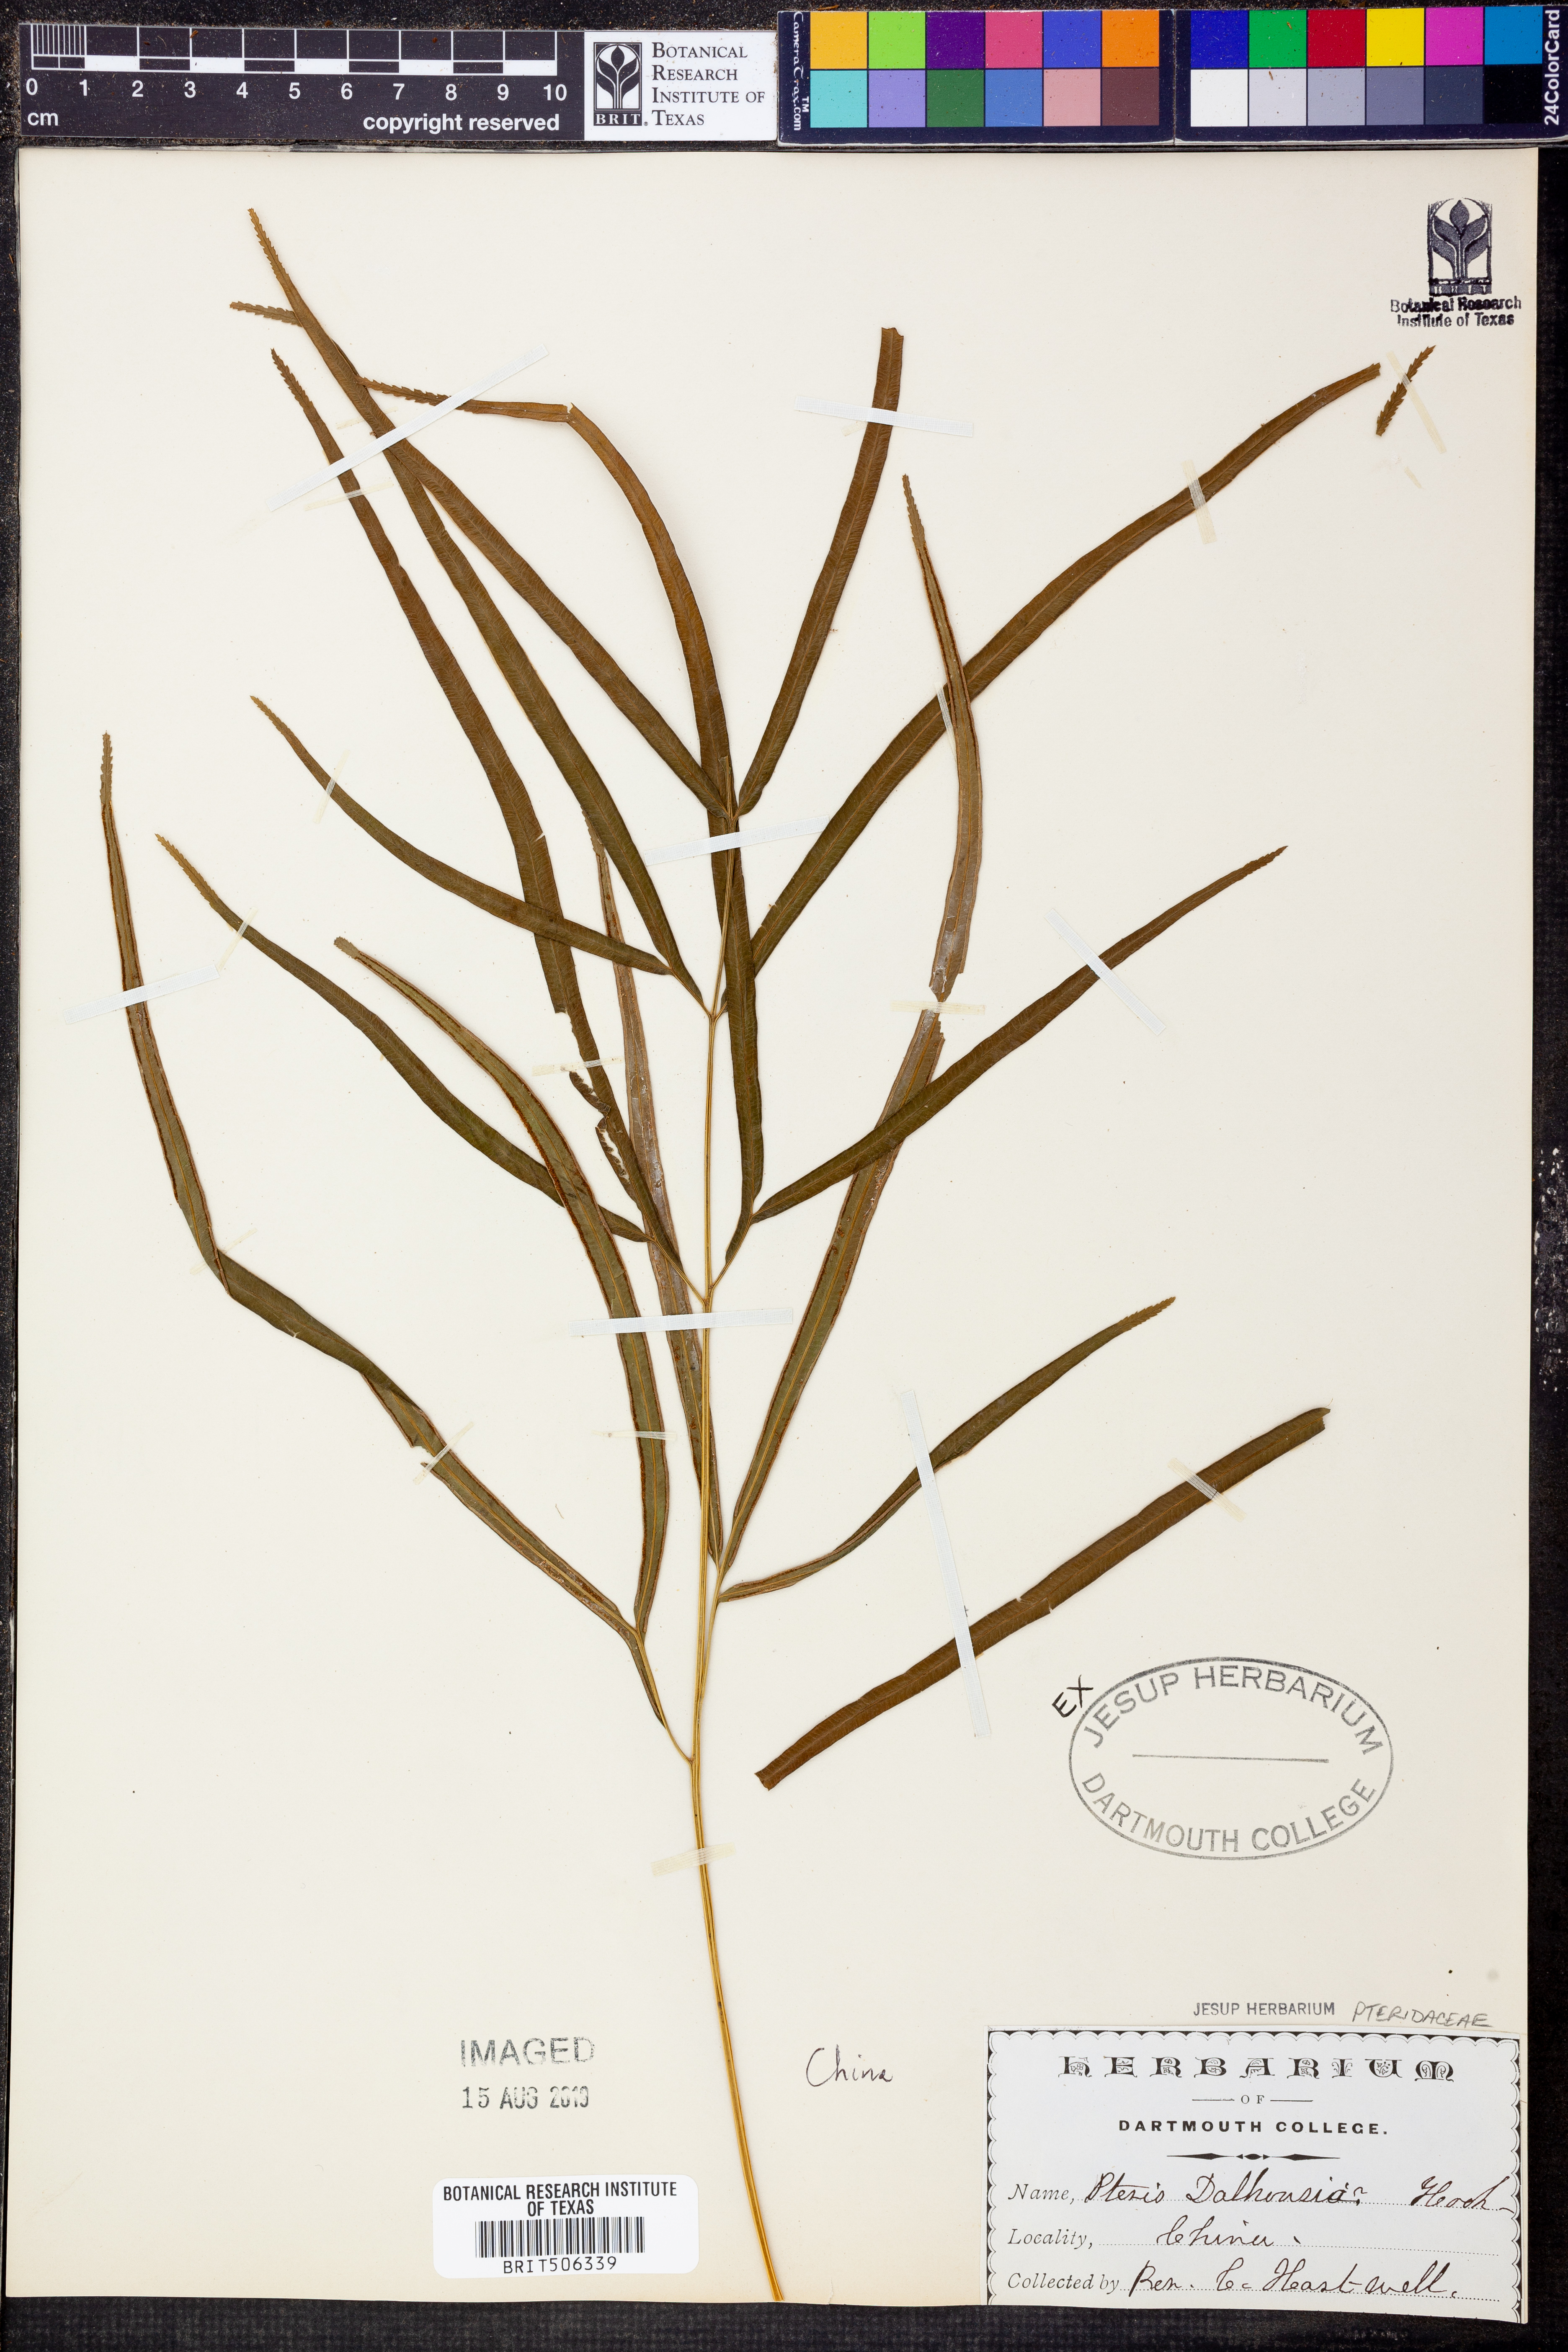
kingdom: Plantae
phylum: Tracheophyta
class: Polypodiopsida
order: Polypodiales
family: Pteridaceae
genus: Pteris
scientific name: Pteris dalhousiae
